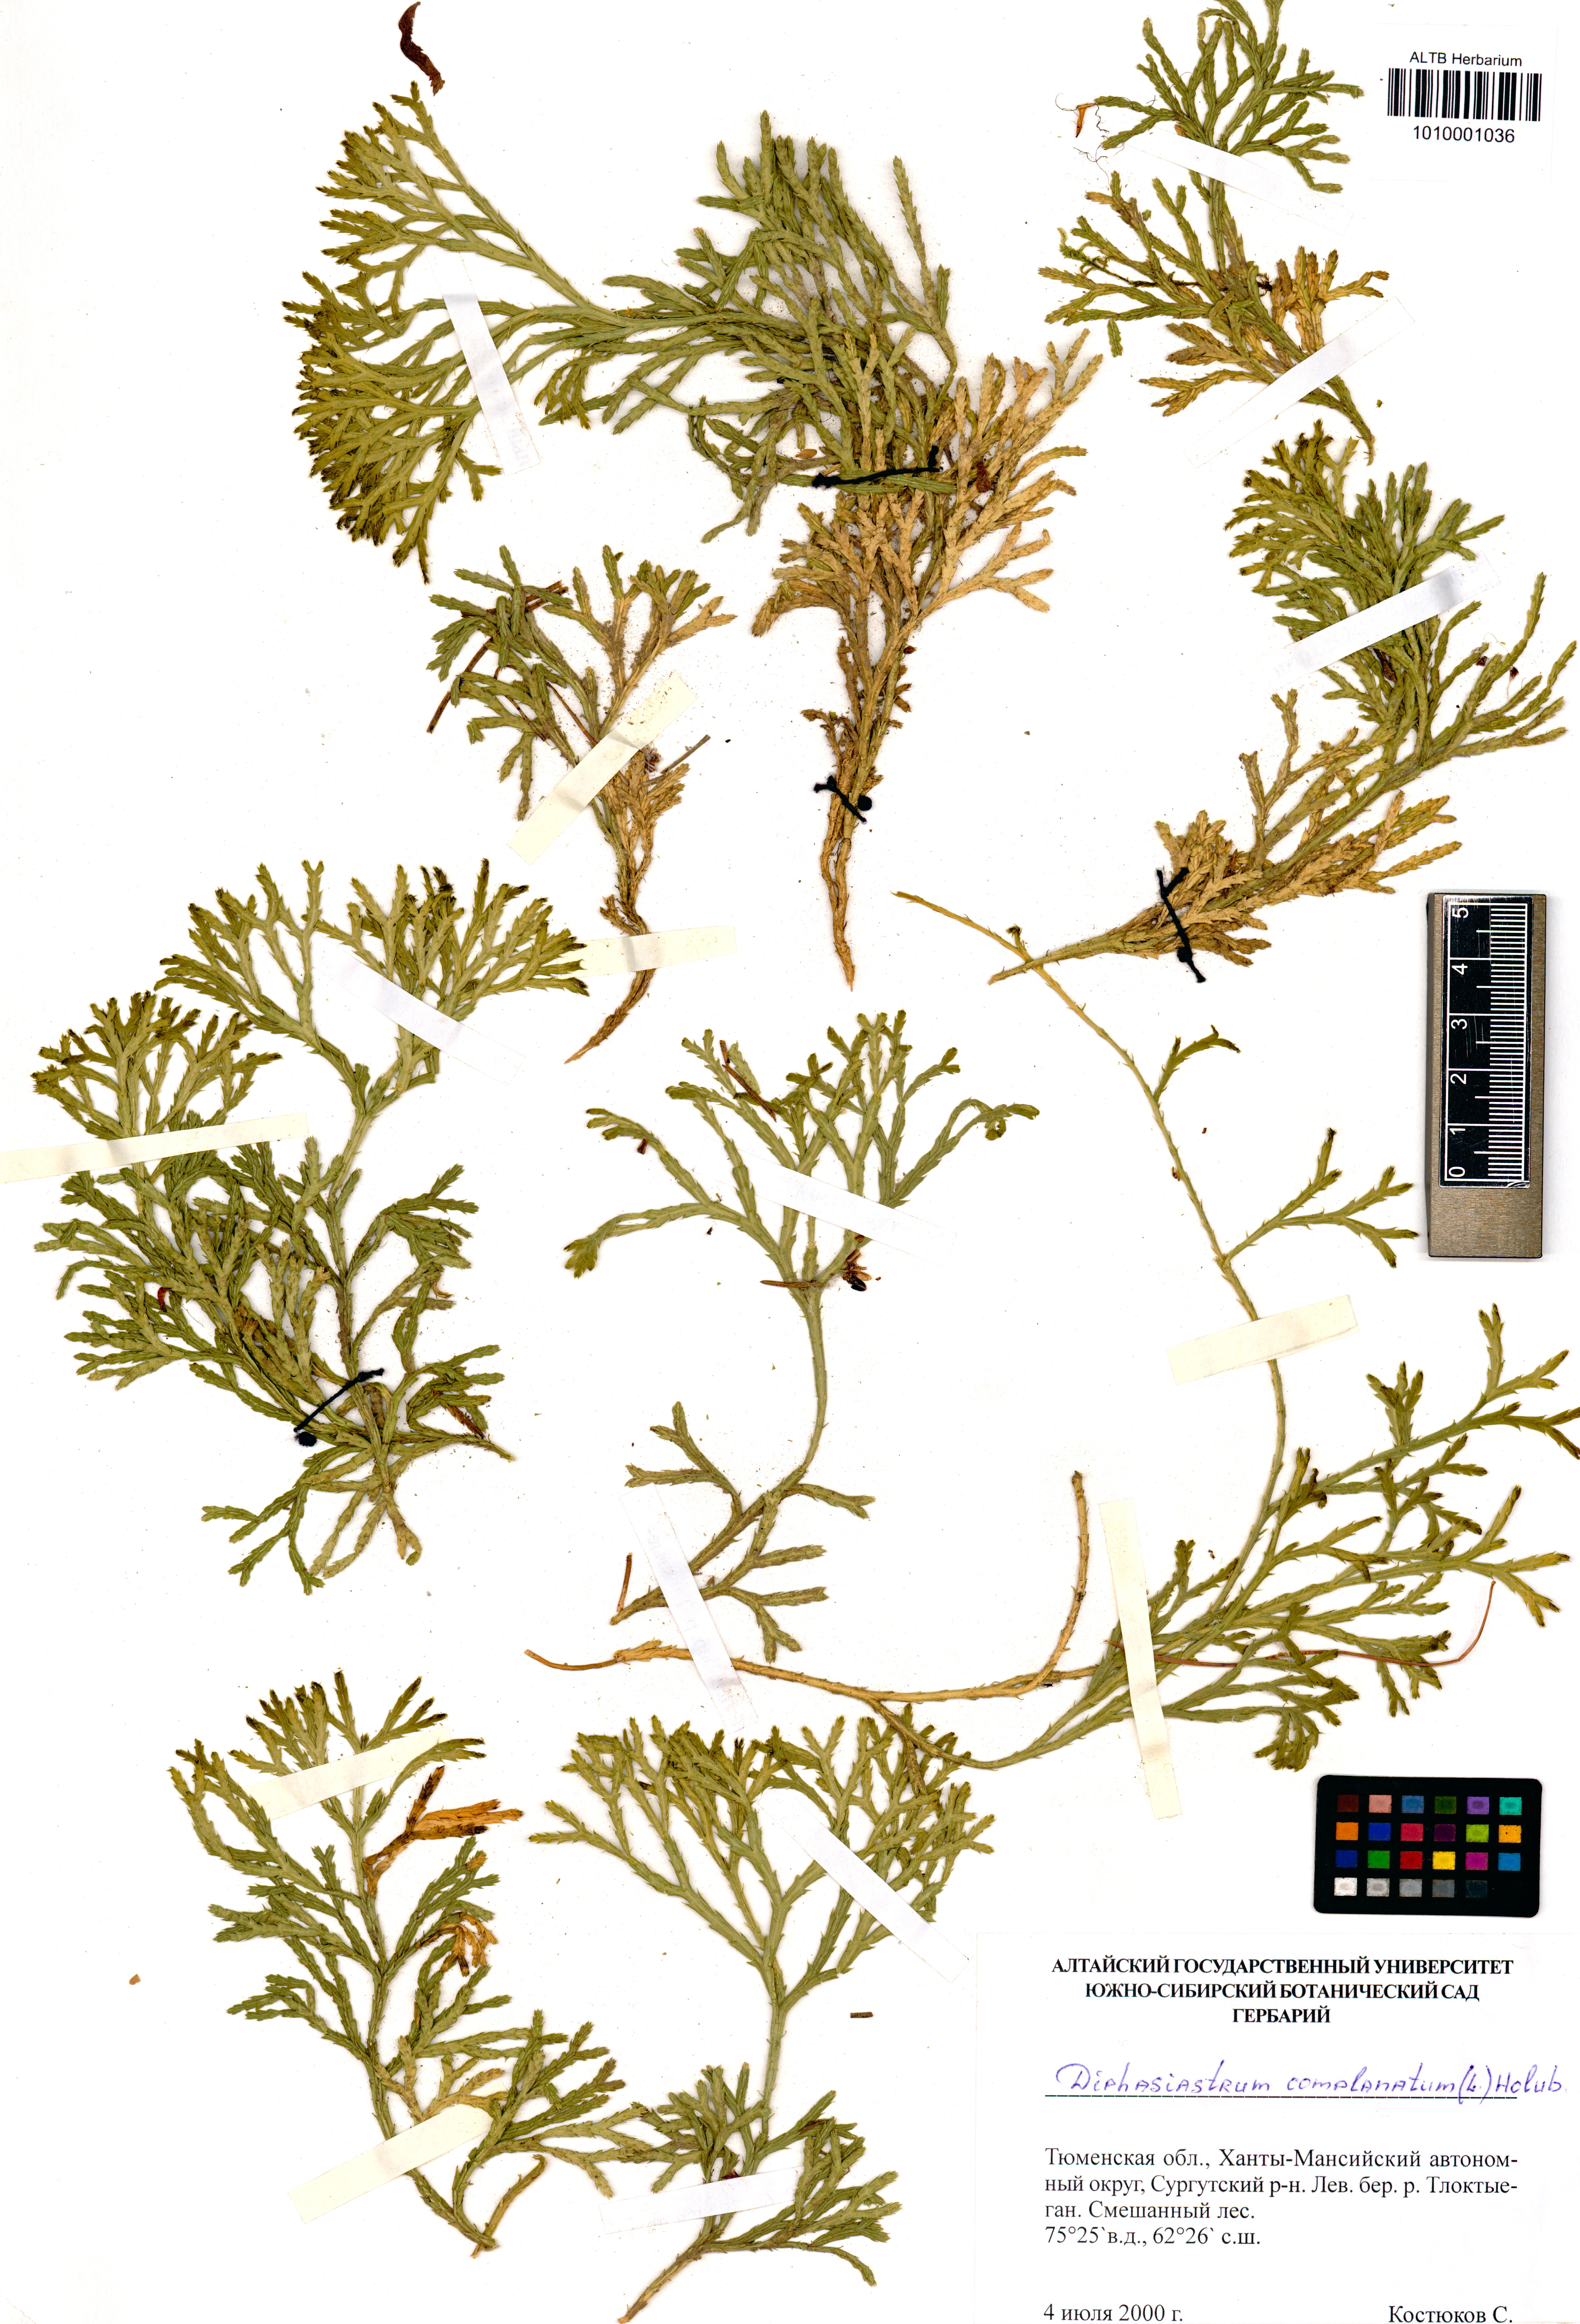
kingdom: Plantae
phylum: Tracheophyta
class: Lycopodiopsida
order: Lycopodiales
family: Lycopodiaceae
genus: Diphasiastrum
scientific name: Diphasiastrum complanatum
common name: Northern running-pine
